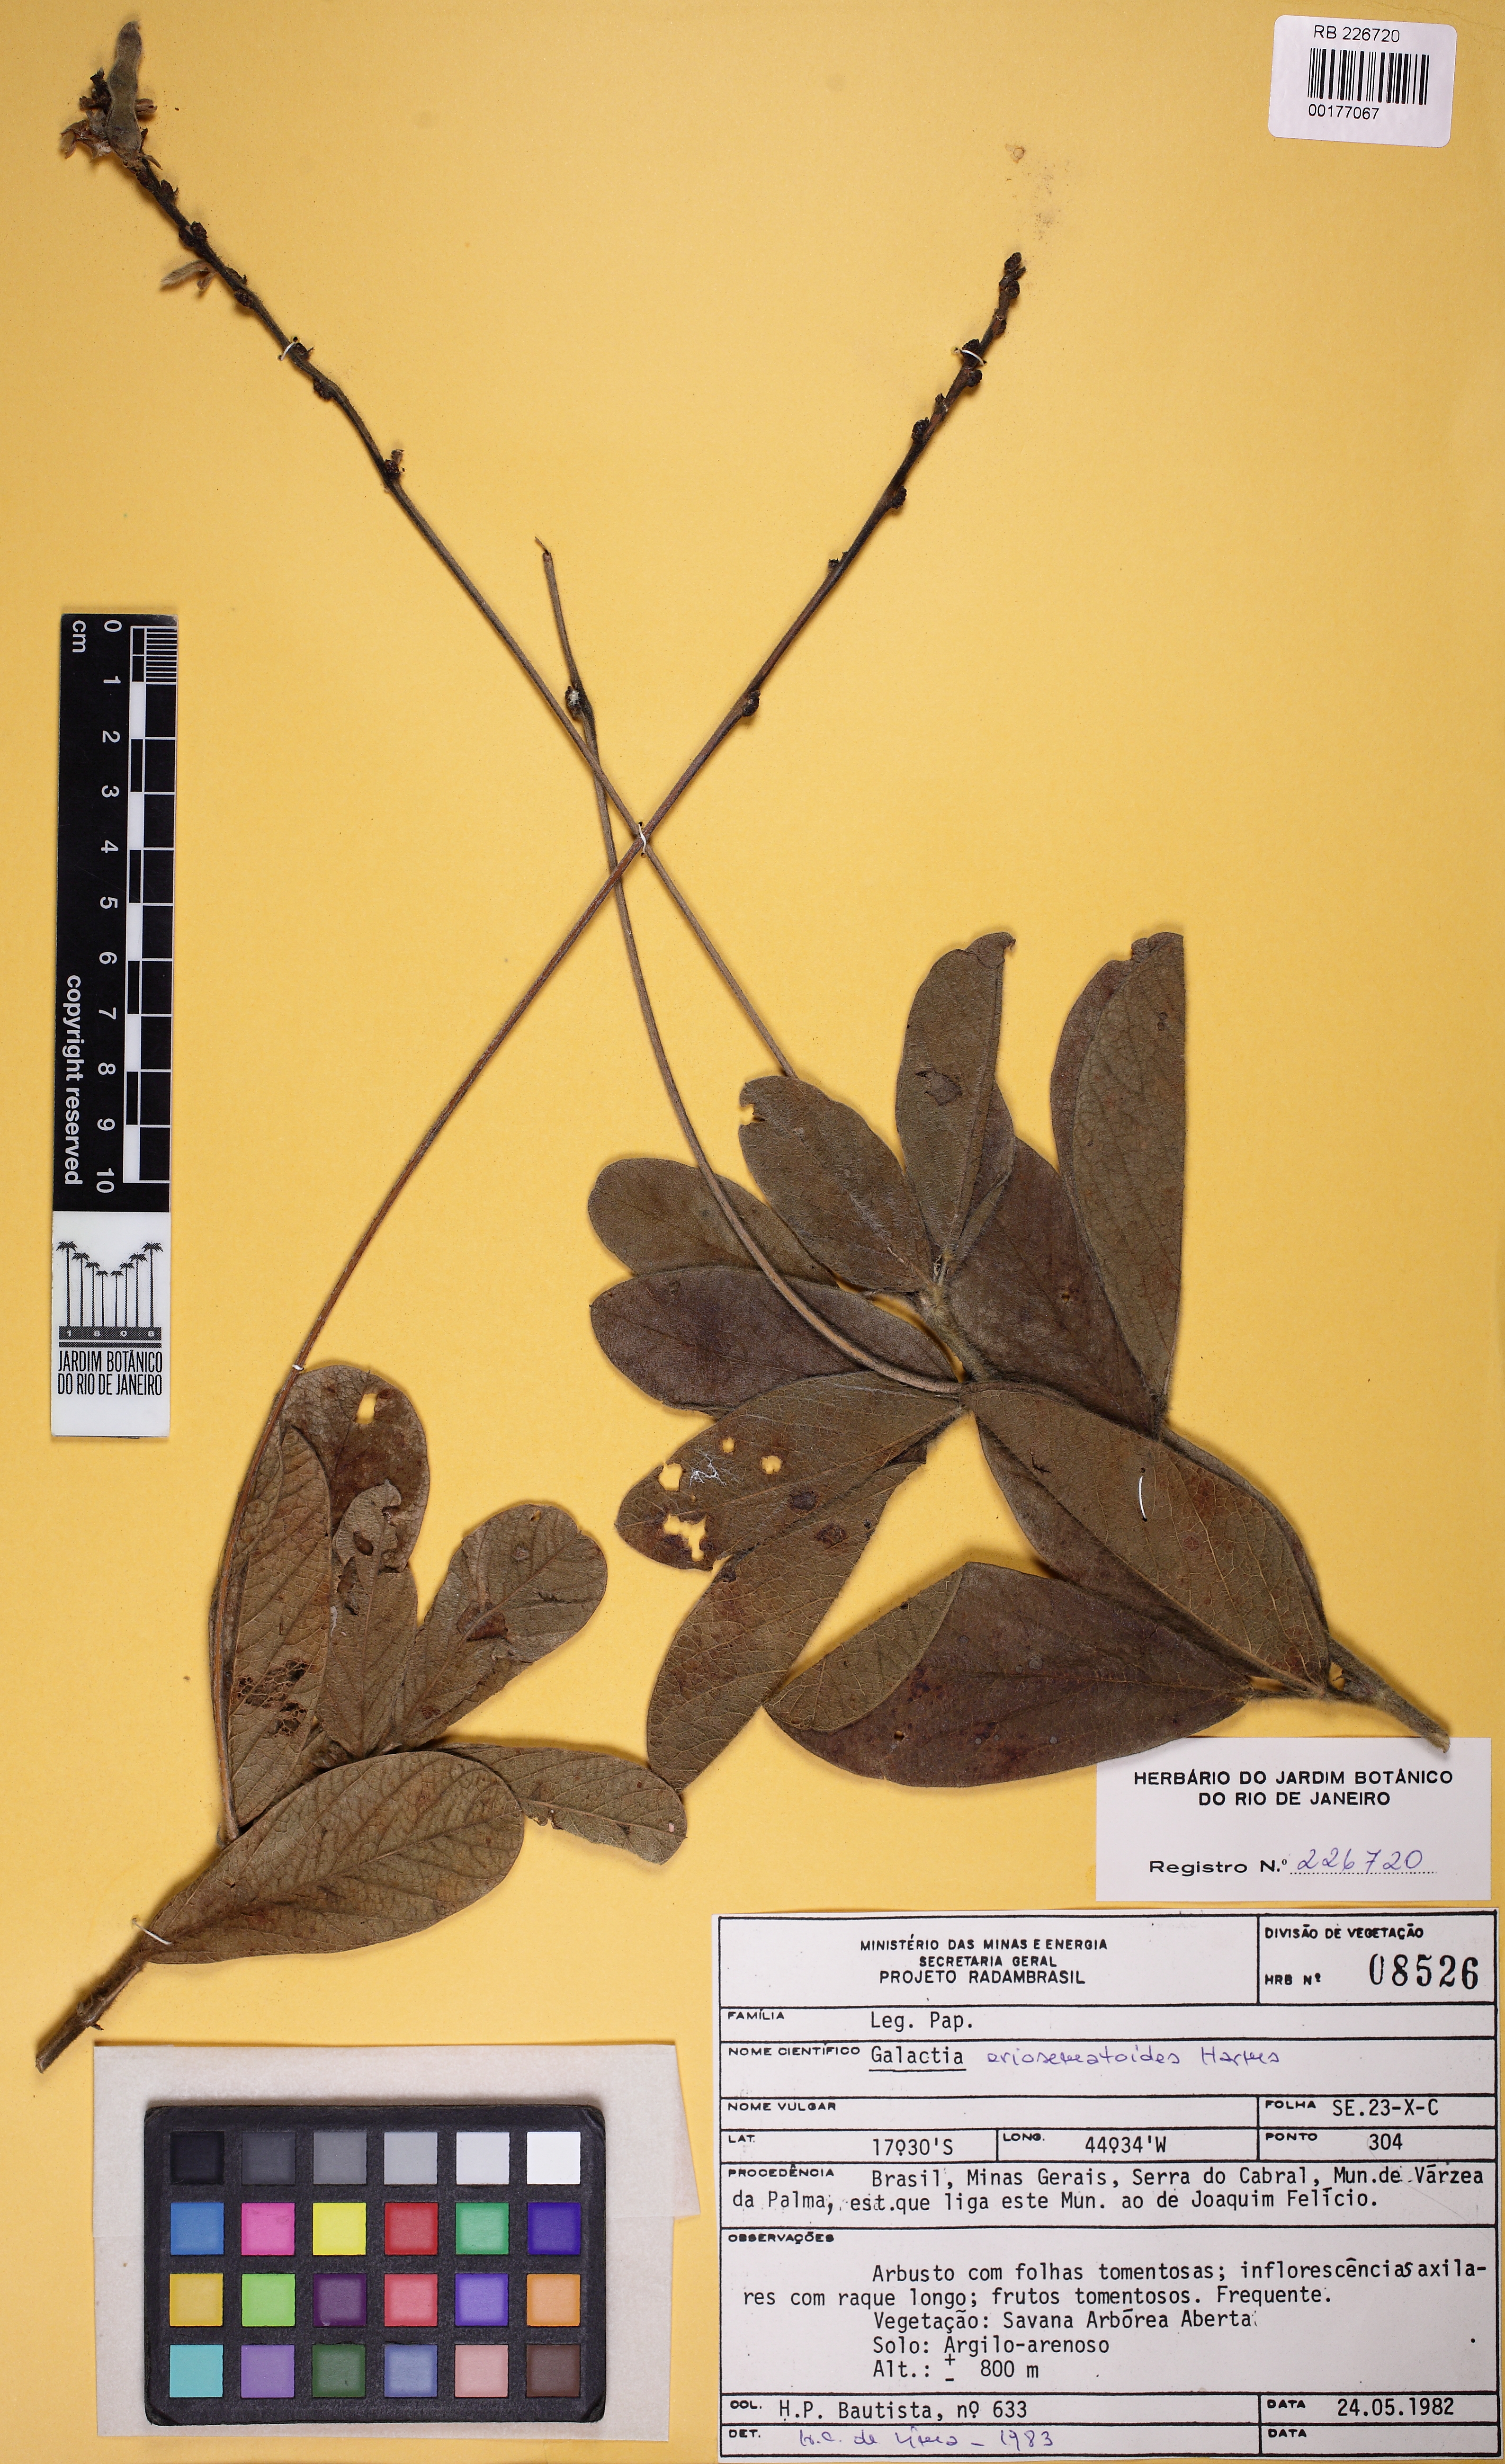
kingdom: Plantae
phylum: Tracheophyta
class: Magnoliopsida
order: Fabales
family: Fabaceae
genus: Cerradicola
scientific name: Cerradicola eriosematoides
